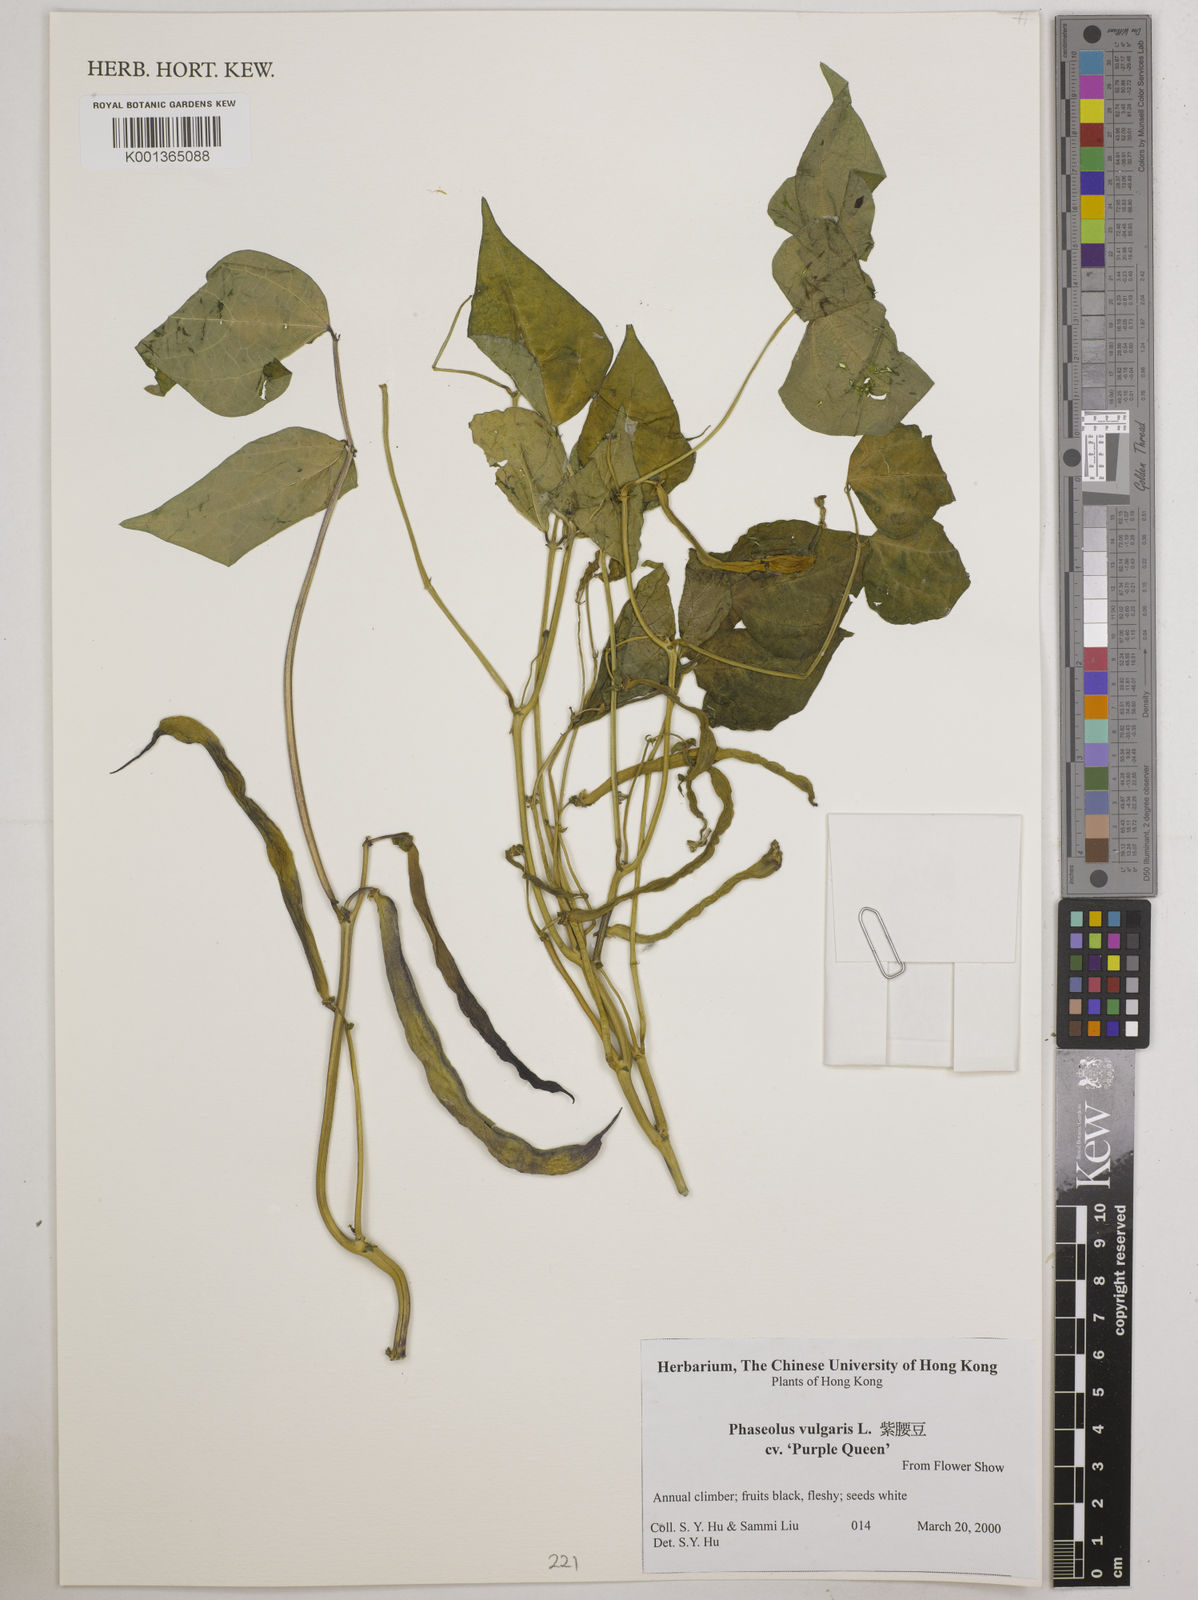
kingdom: Plantae
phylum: Tracheophyta
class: Magnoliopsida
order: Fabales
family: Fabaceae
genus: Phaseolus
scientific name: Phaseolus vulgaris
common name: Bean
